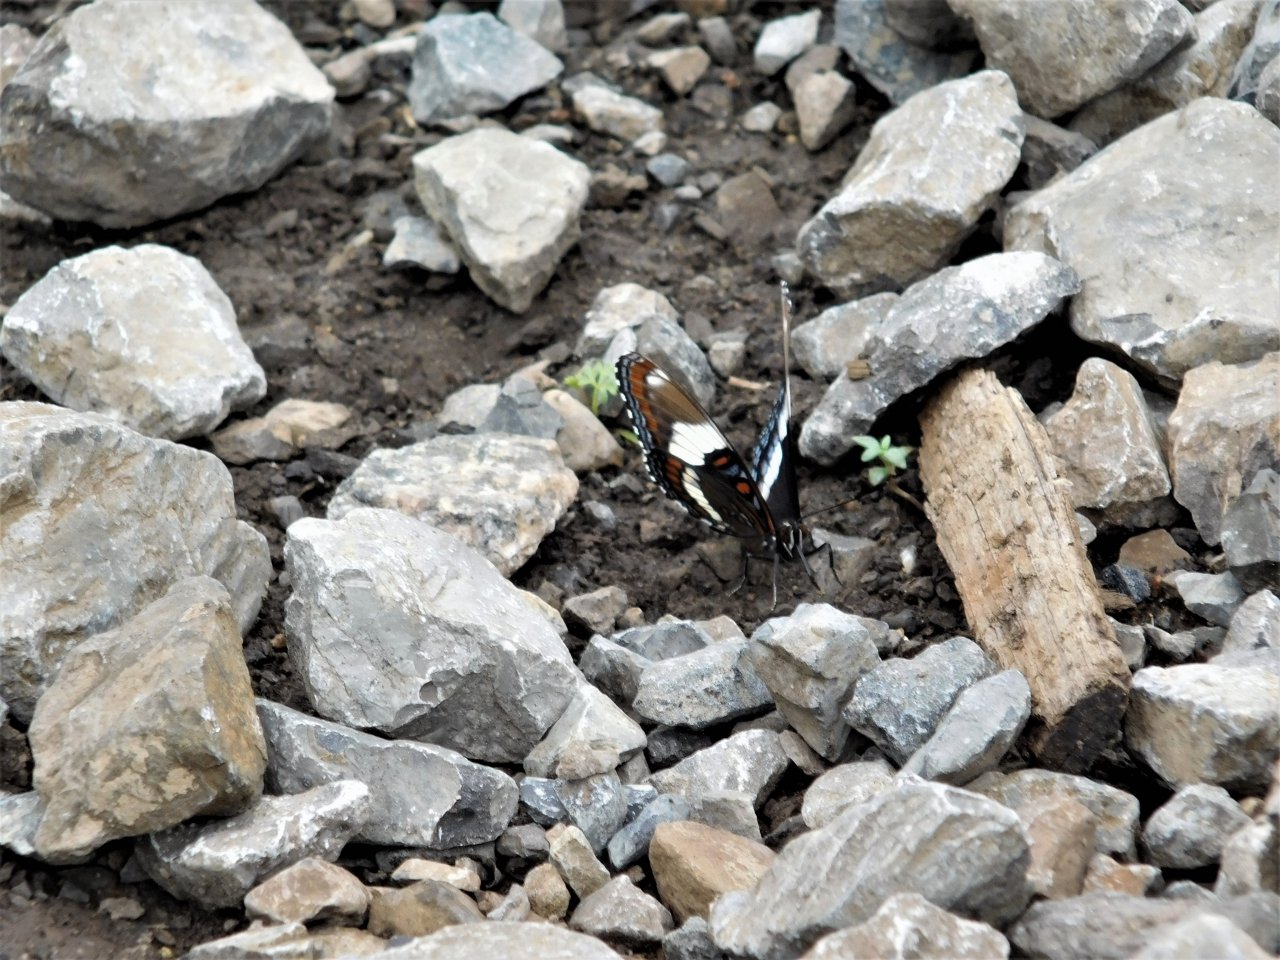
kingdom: Animalia
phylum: Arthropoda
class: Insecta
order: Lepidoptera
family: Nymphalidae
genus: Limenitis
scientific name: Limenitis arthemis
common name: Red-spotted Admiral
